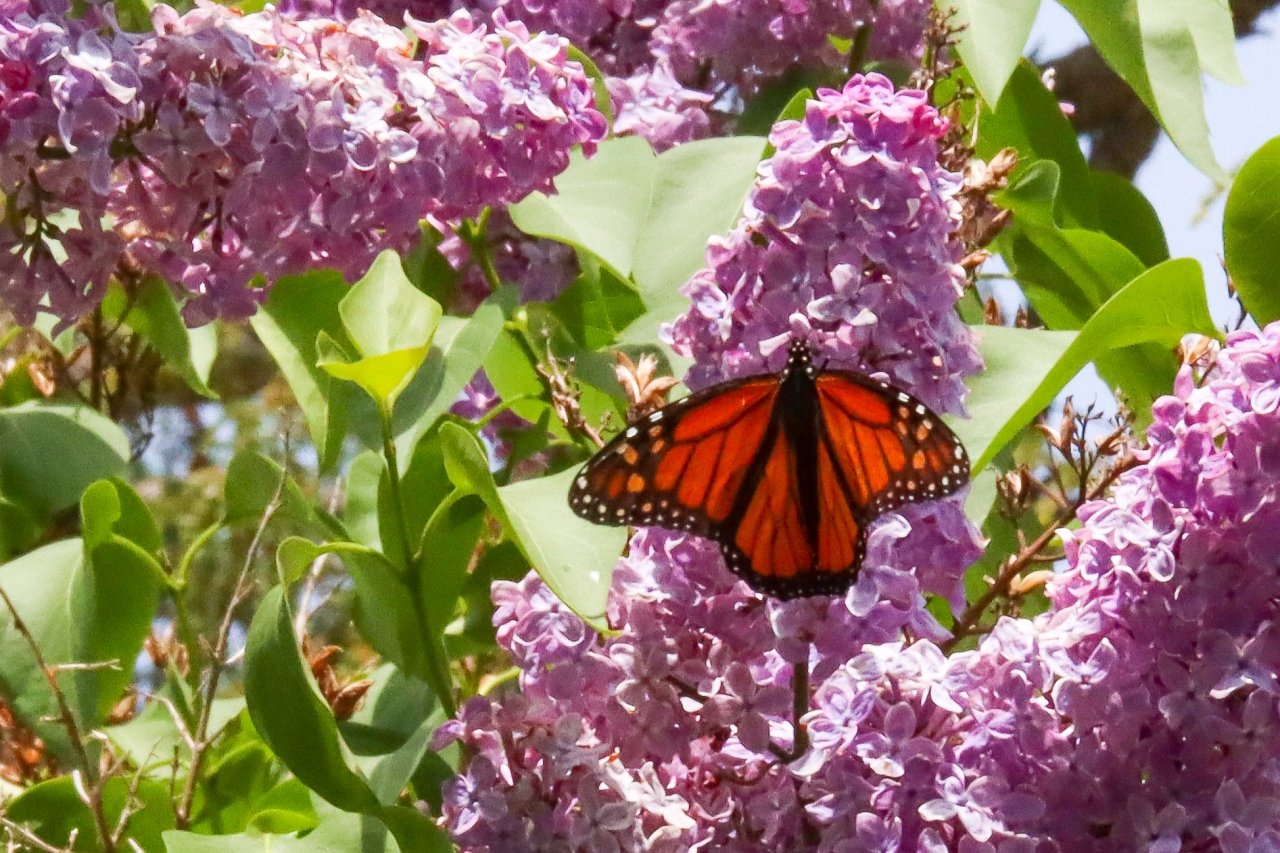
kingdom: Animalia
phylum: Arthropoda
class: Insecta
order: Lepidoptera
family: Nymphalidae
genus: Danaus
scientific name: Danaus plexippus
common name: Monarch
